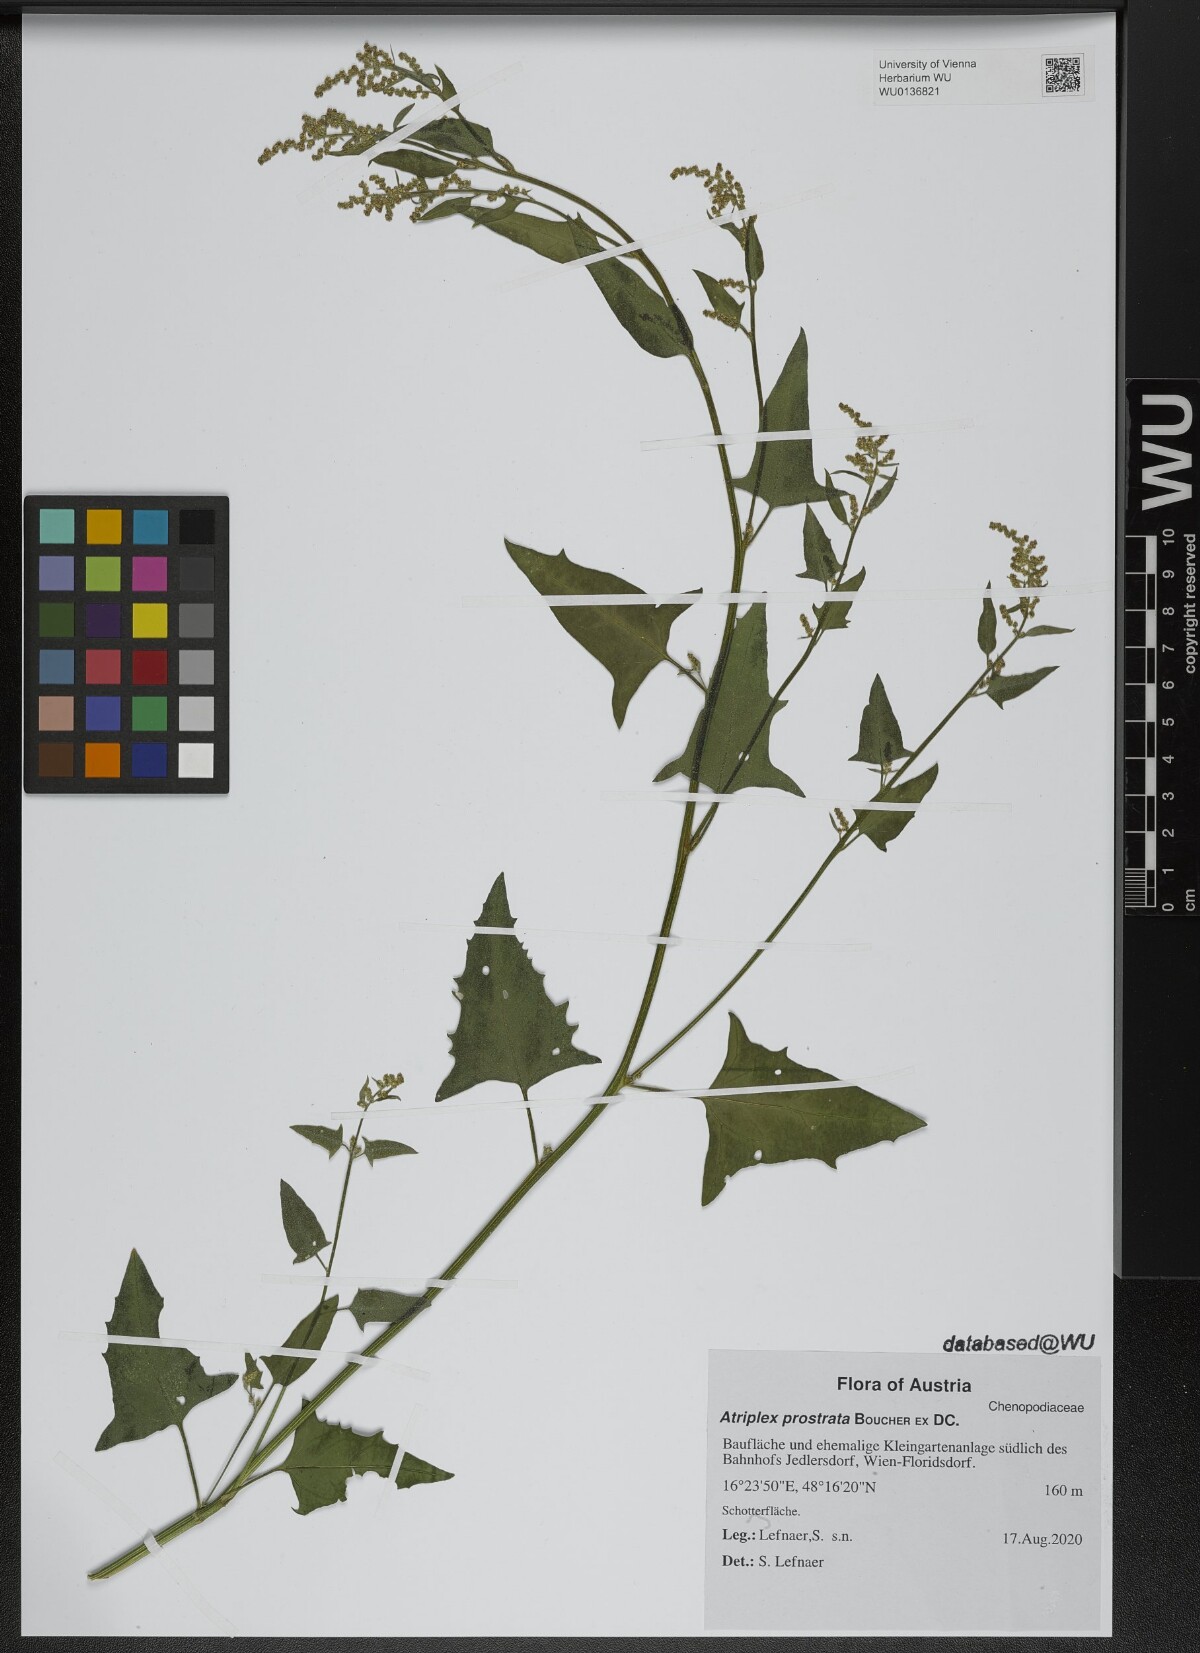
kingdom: Plantae
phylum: Tracheophyta
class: Magnoliopsida
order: Caryophyllales
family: Amaranthaceae
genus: Atriplex
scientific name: Atriplex prostrata
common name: Spear-leaved orache
